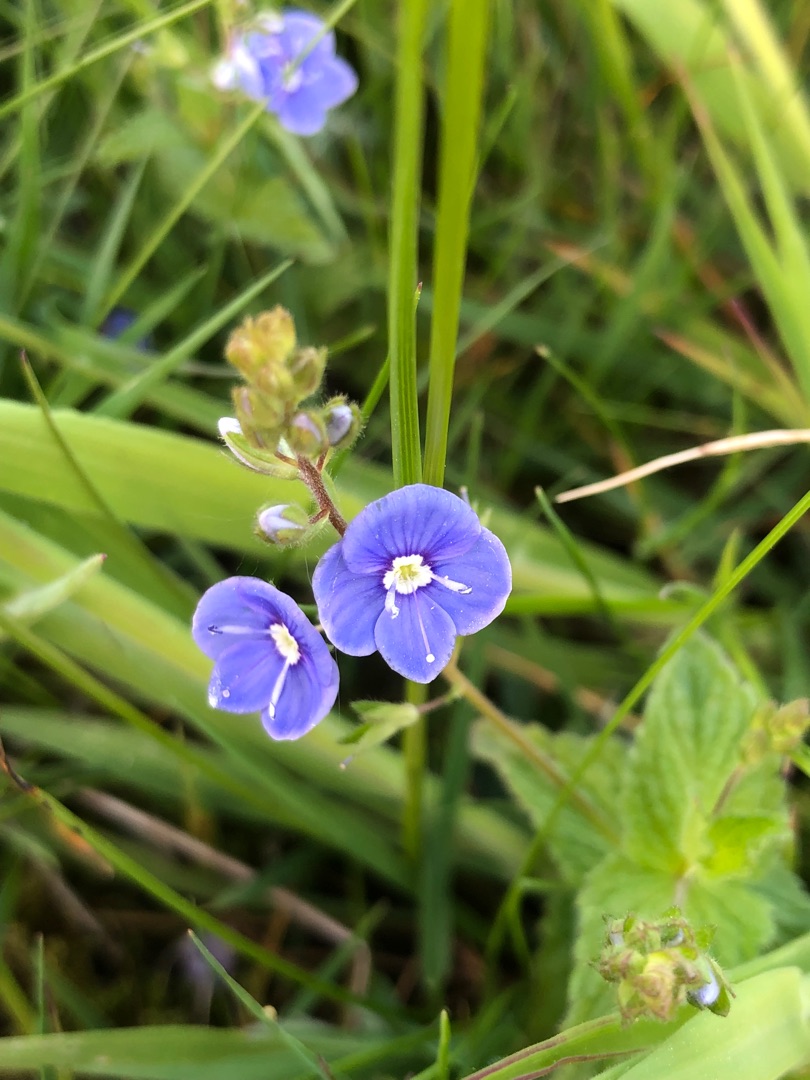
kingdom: Plantae
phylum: Tracheophyta
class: Magnoliopsida
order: Lamiales
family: Plantaginaceae
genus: Veronica
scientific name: Veronica chamaedrys
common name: Tveskægget ærenpris
